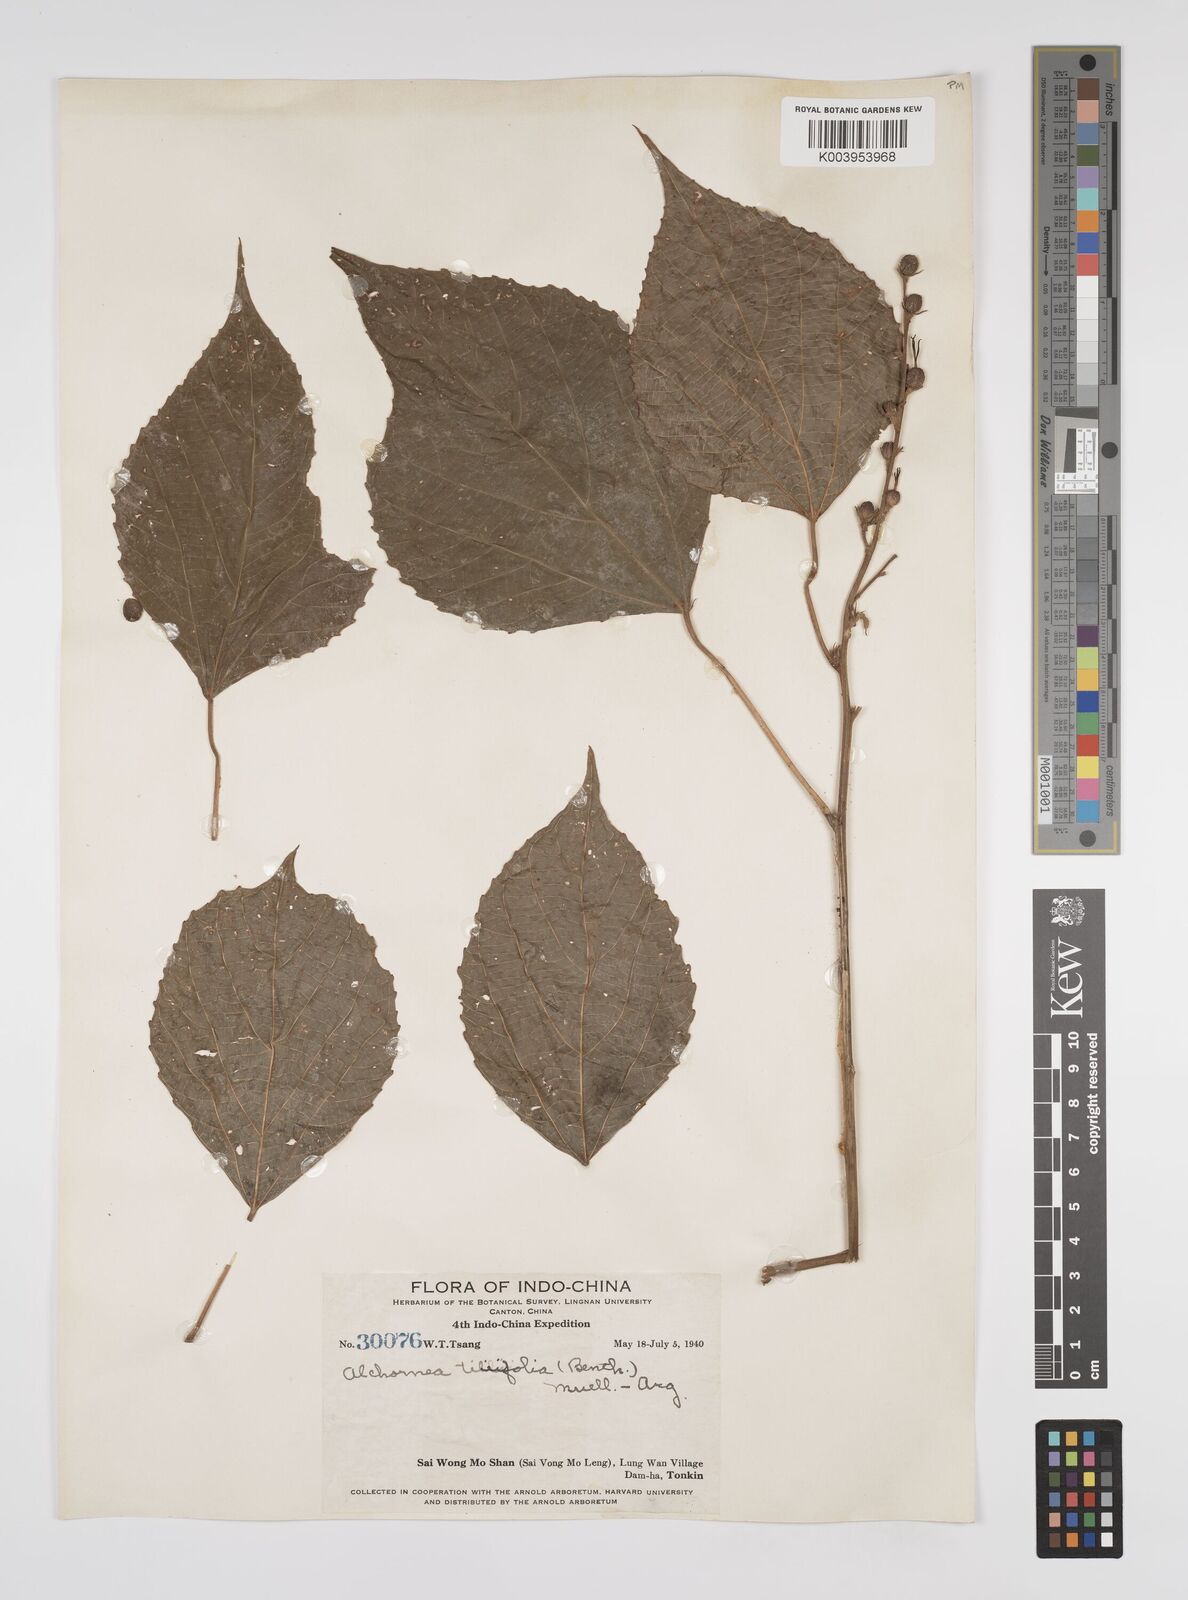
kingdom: Plantae
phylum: Tracheophyta
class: Magnoliopsida
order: Malpighiales
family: Euphorbiaceae
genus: Alchornea
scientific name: Alchornea tiliifolia
